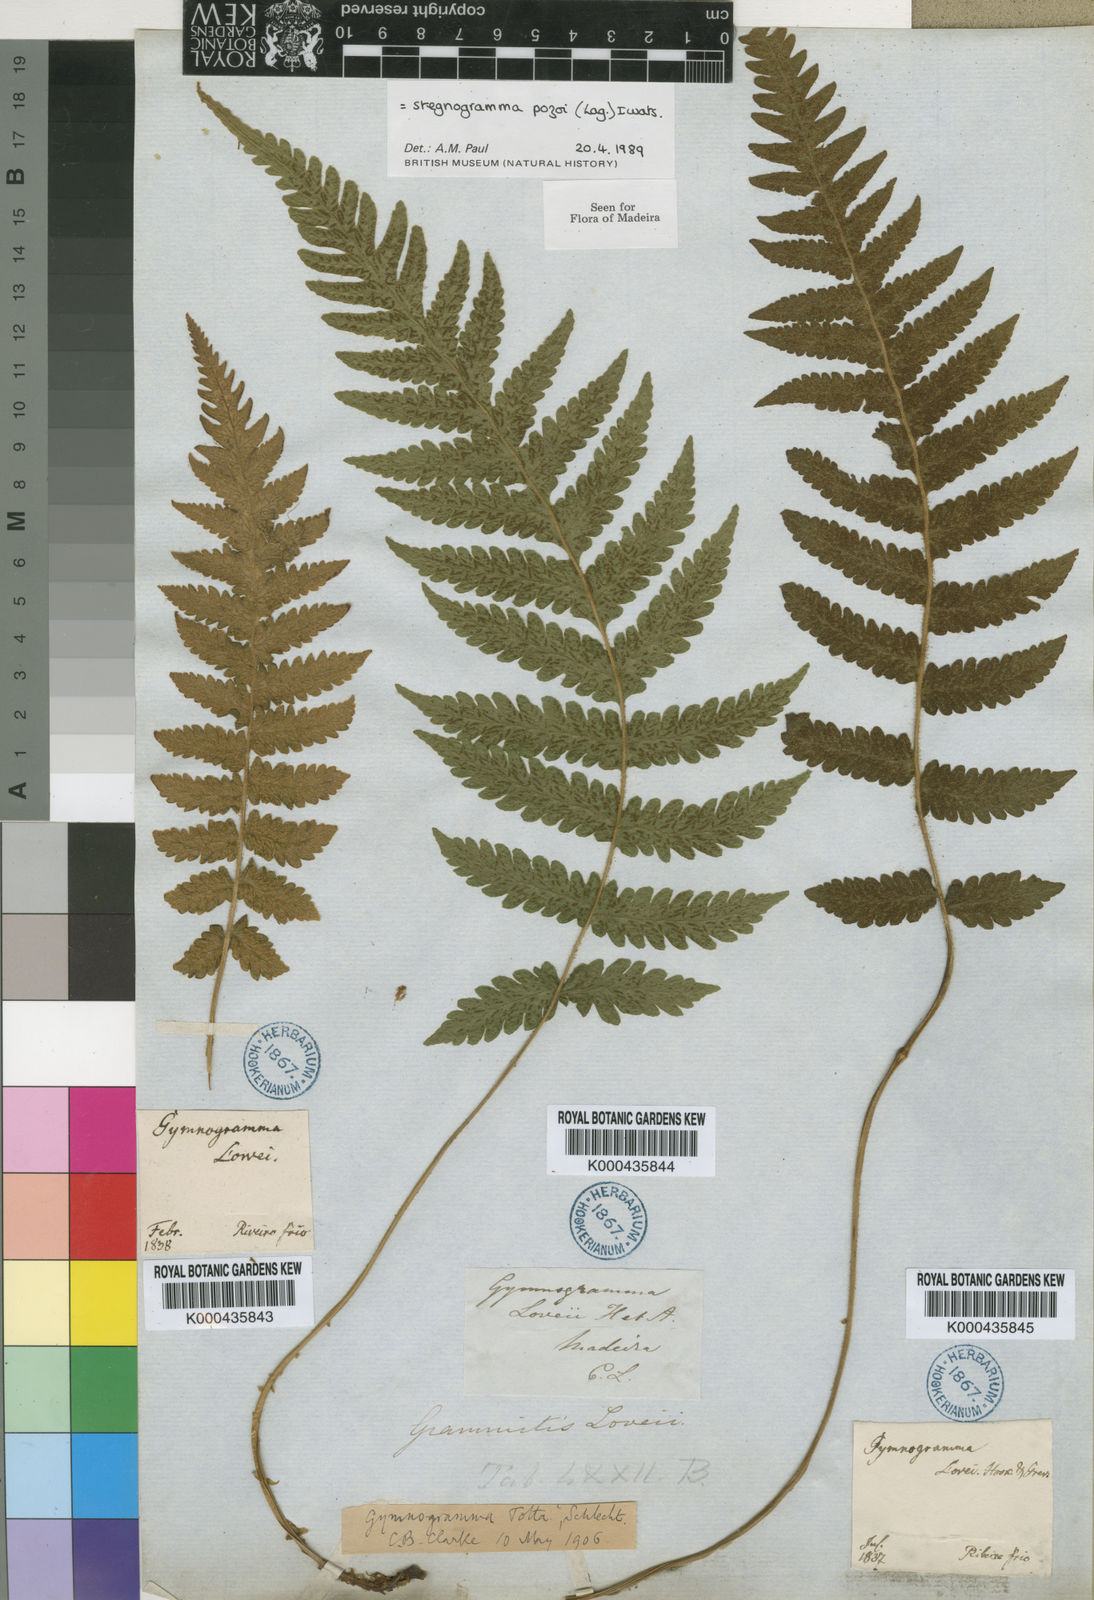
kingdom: Plantae
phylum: Tracheophyta
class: Polypodiopsida
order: Polypodiales
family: Thelypteridaceae
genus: Leptogramma
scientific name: Leptogramma pozoi
